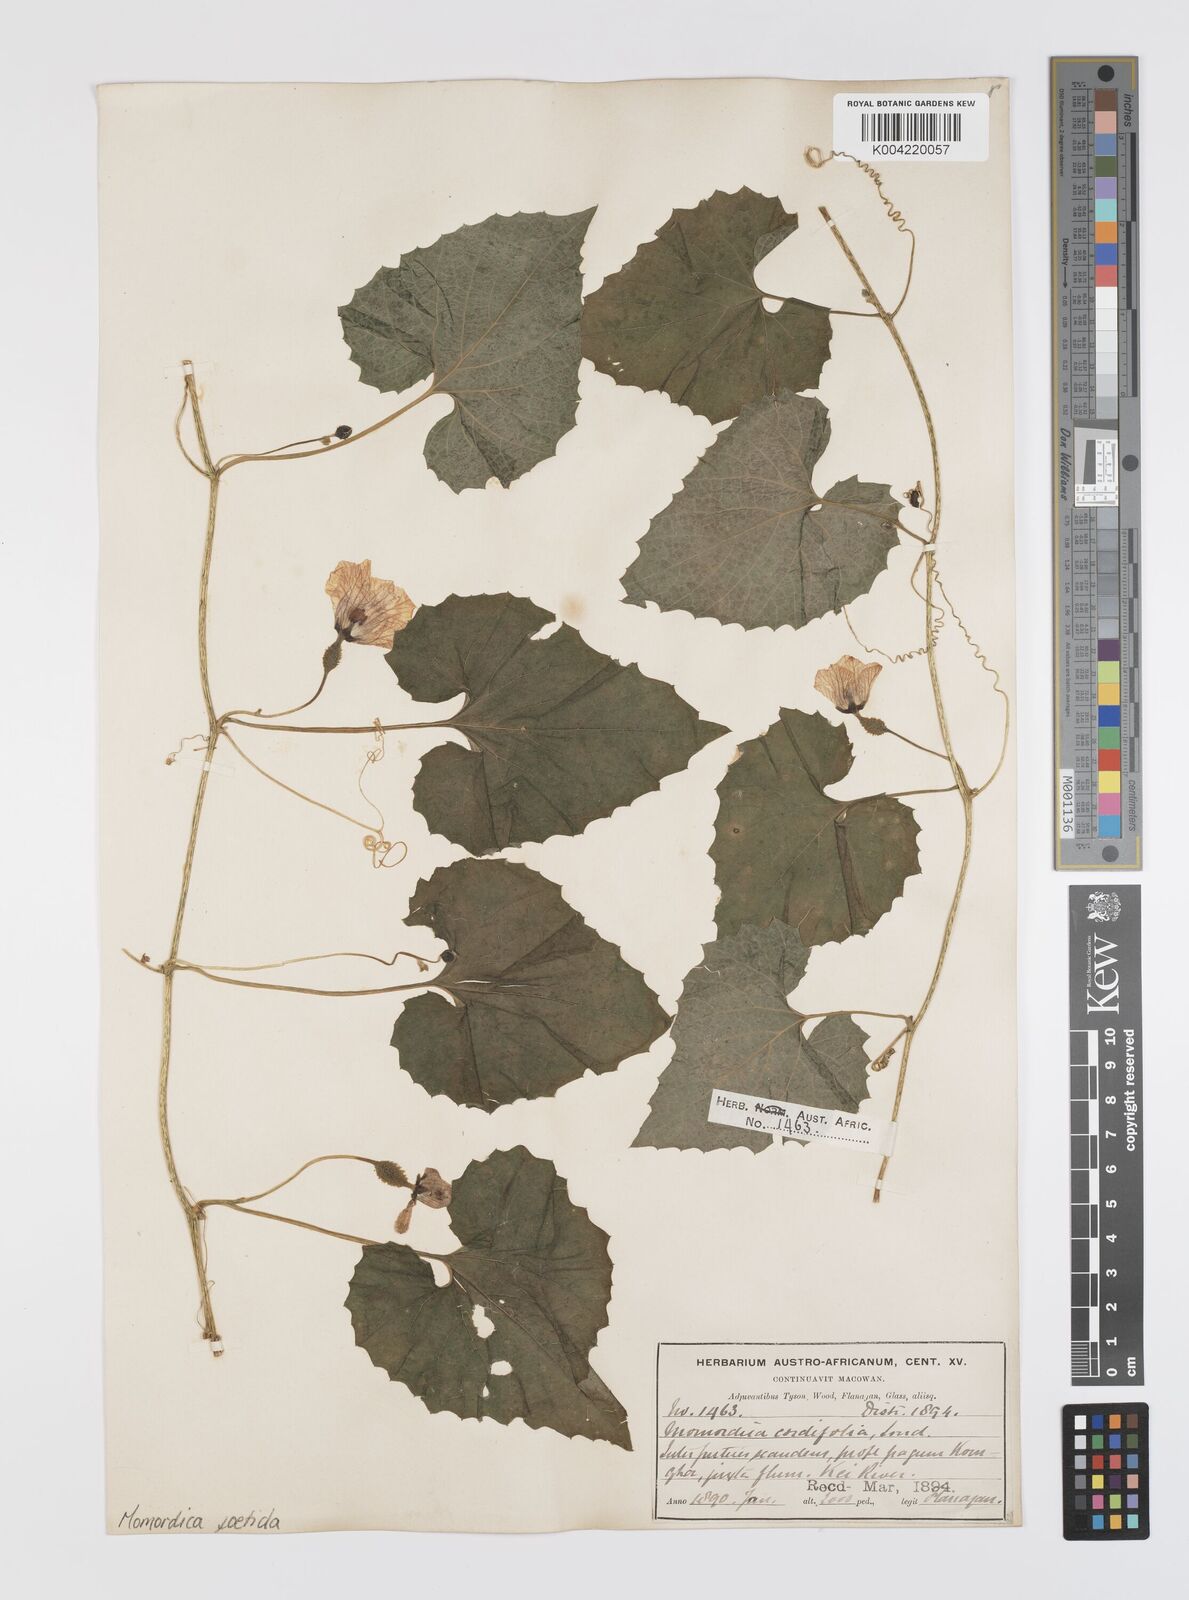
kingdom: Plantae
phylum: Tracheophyta
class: Magnoliopsida
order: Cucurbitales
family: Cucurbitaceae
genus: Momordica
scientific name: Momordica foetida
